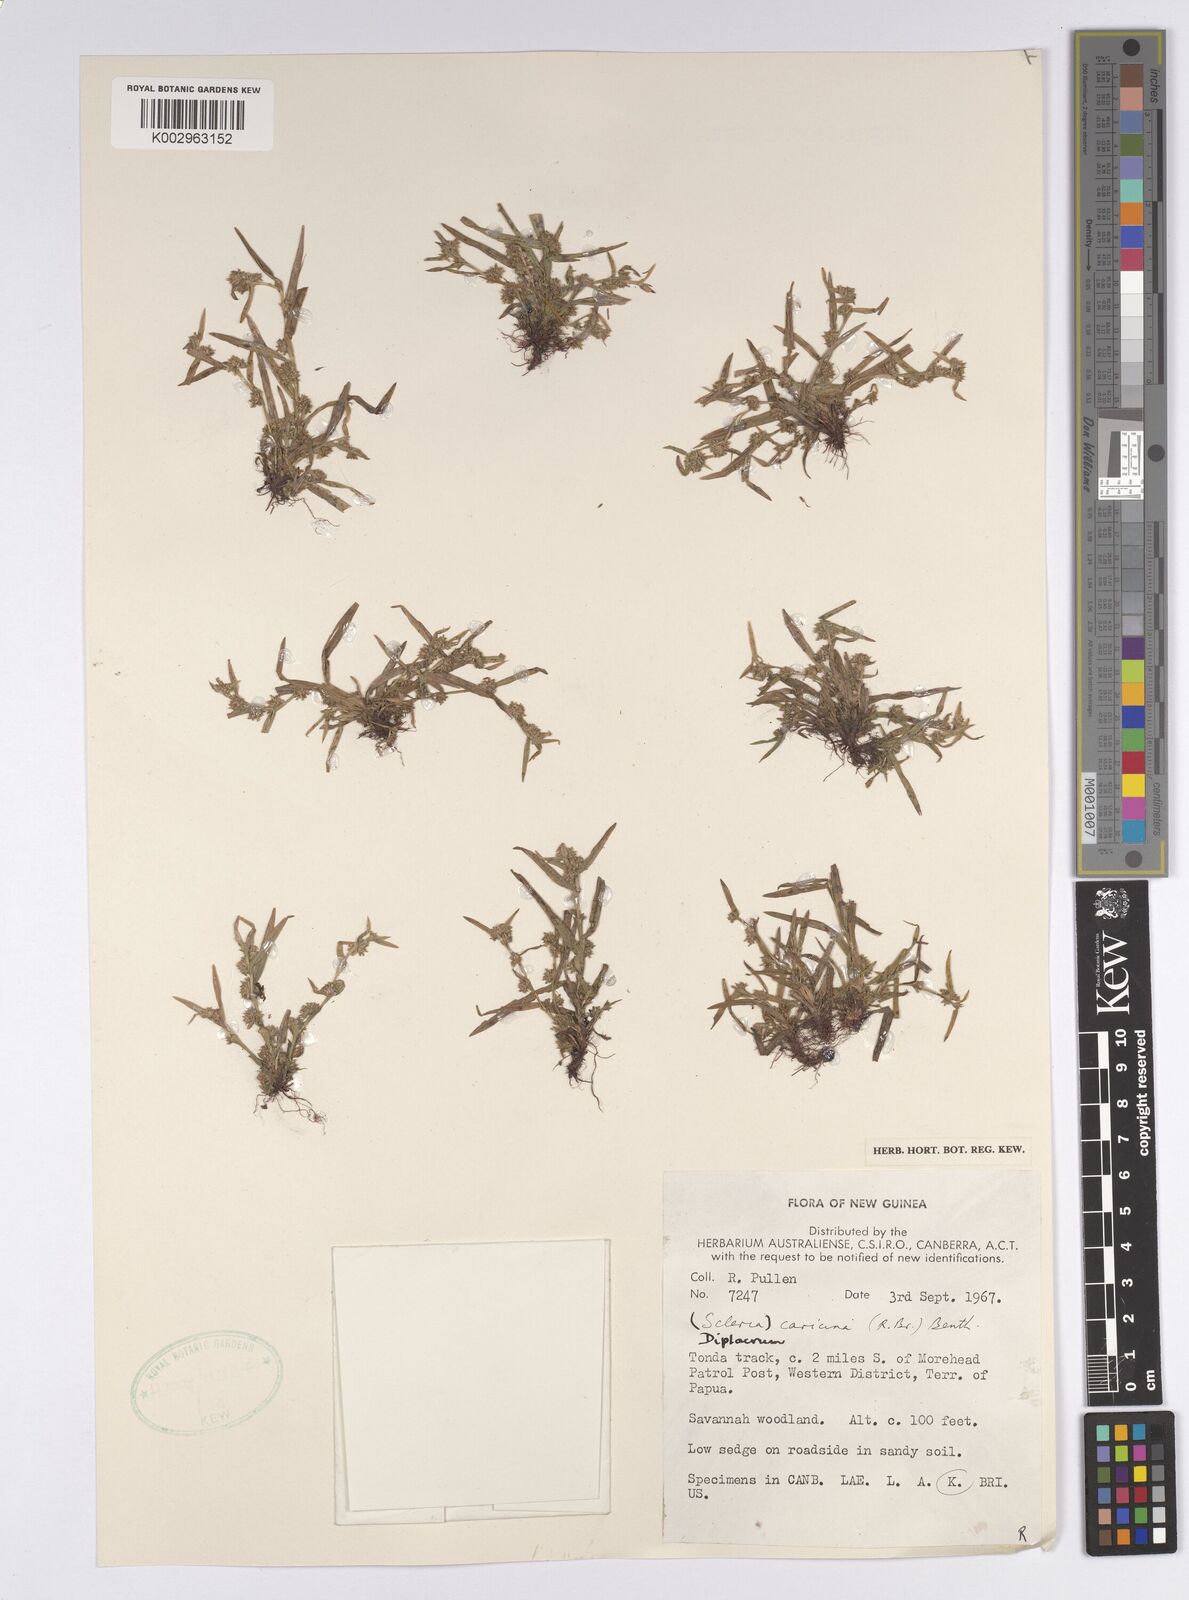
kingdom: Plantae
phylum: Tracheophyta
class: Liliopsida
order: Poales
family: Cyperaceae
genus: Diplacrum
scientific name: Diplacrum caricinum
